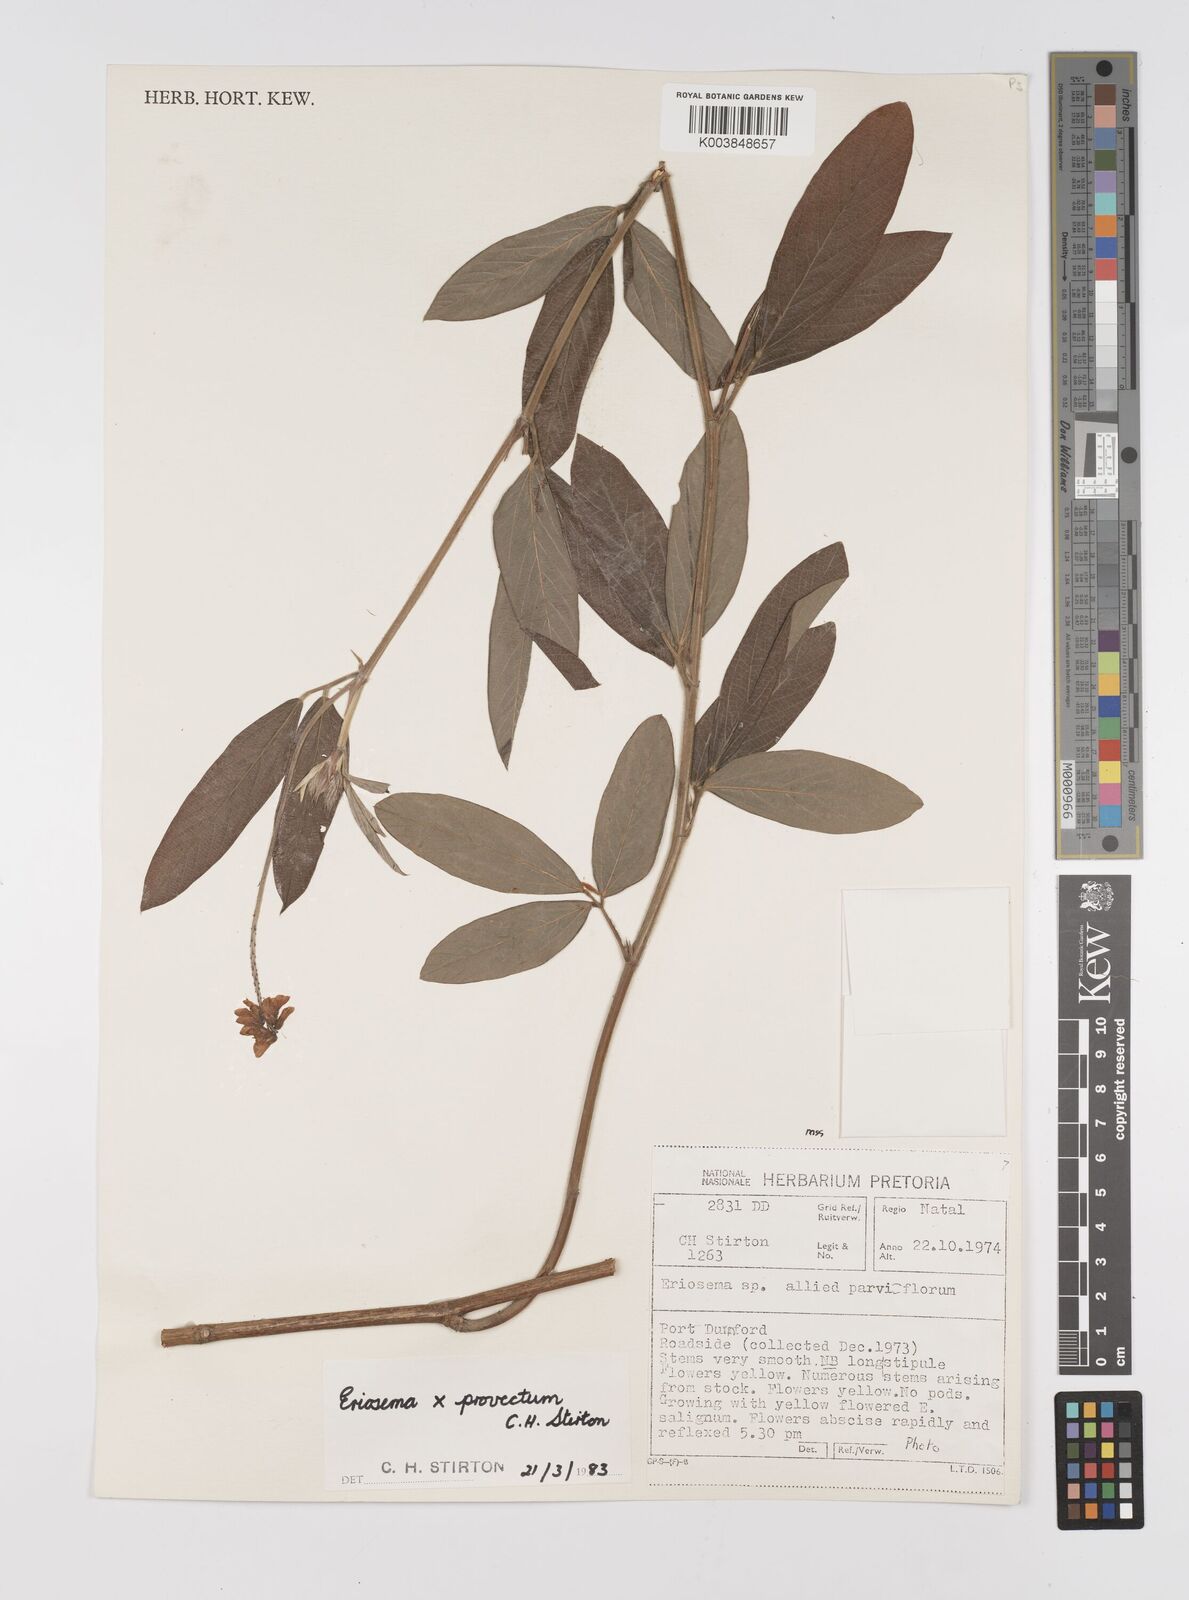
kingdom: Plantae
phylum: Tracheophyta
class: Magnoliopsida
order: Fabales
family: Fabaceae
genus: Eriosema
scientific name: Eriosema provectum
